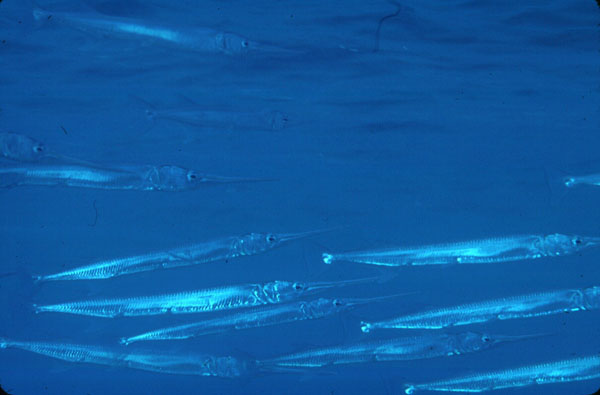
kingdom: Animalia
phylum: Chordata
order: Beloniformes
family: Belonidae
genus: Tylosurus
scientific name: Tylosurus
